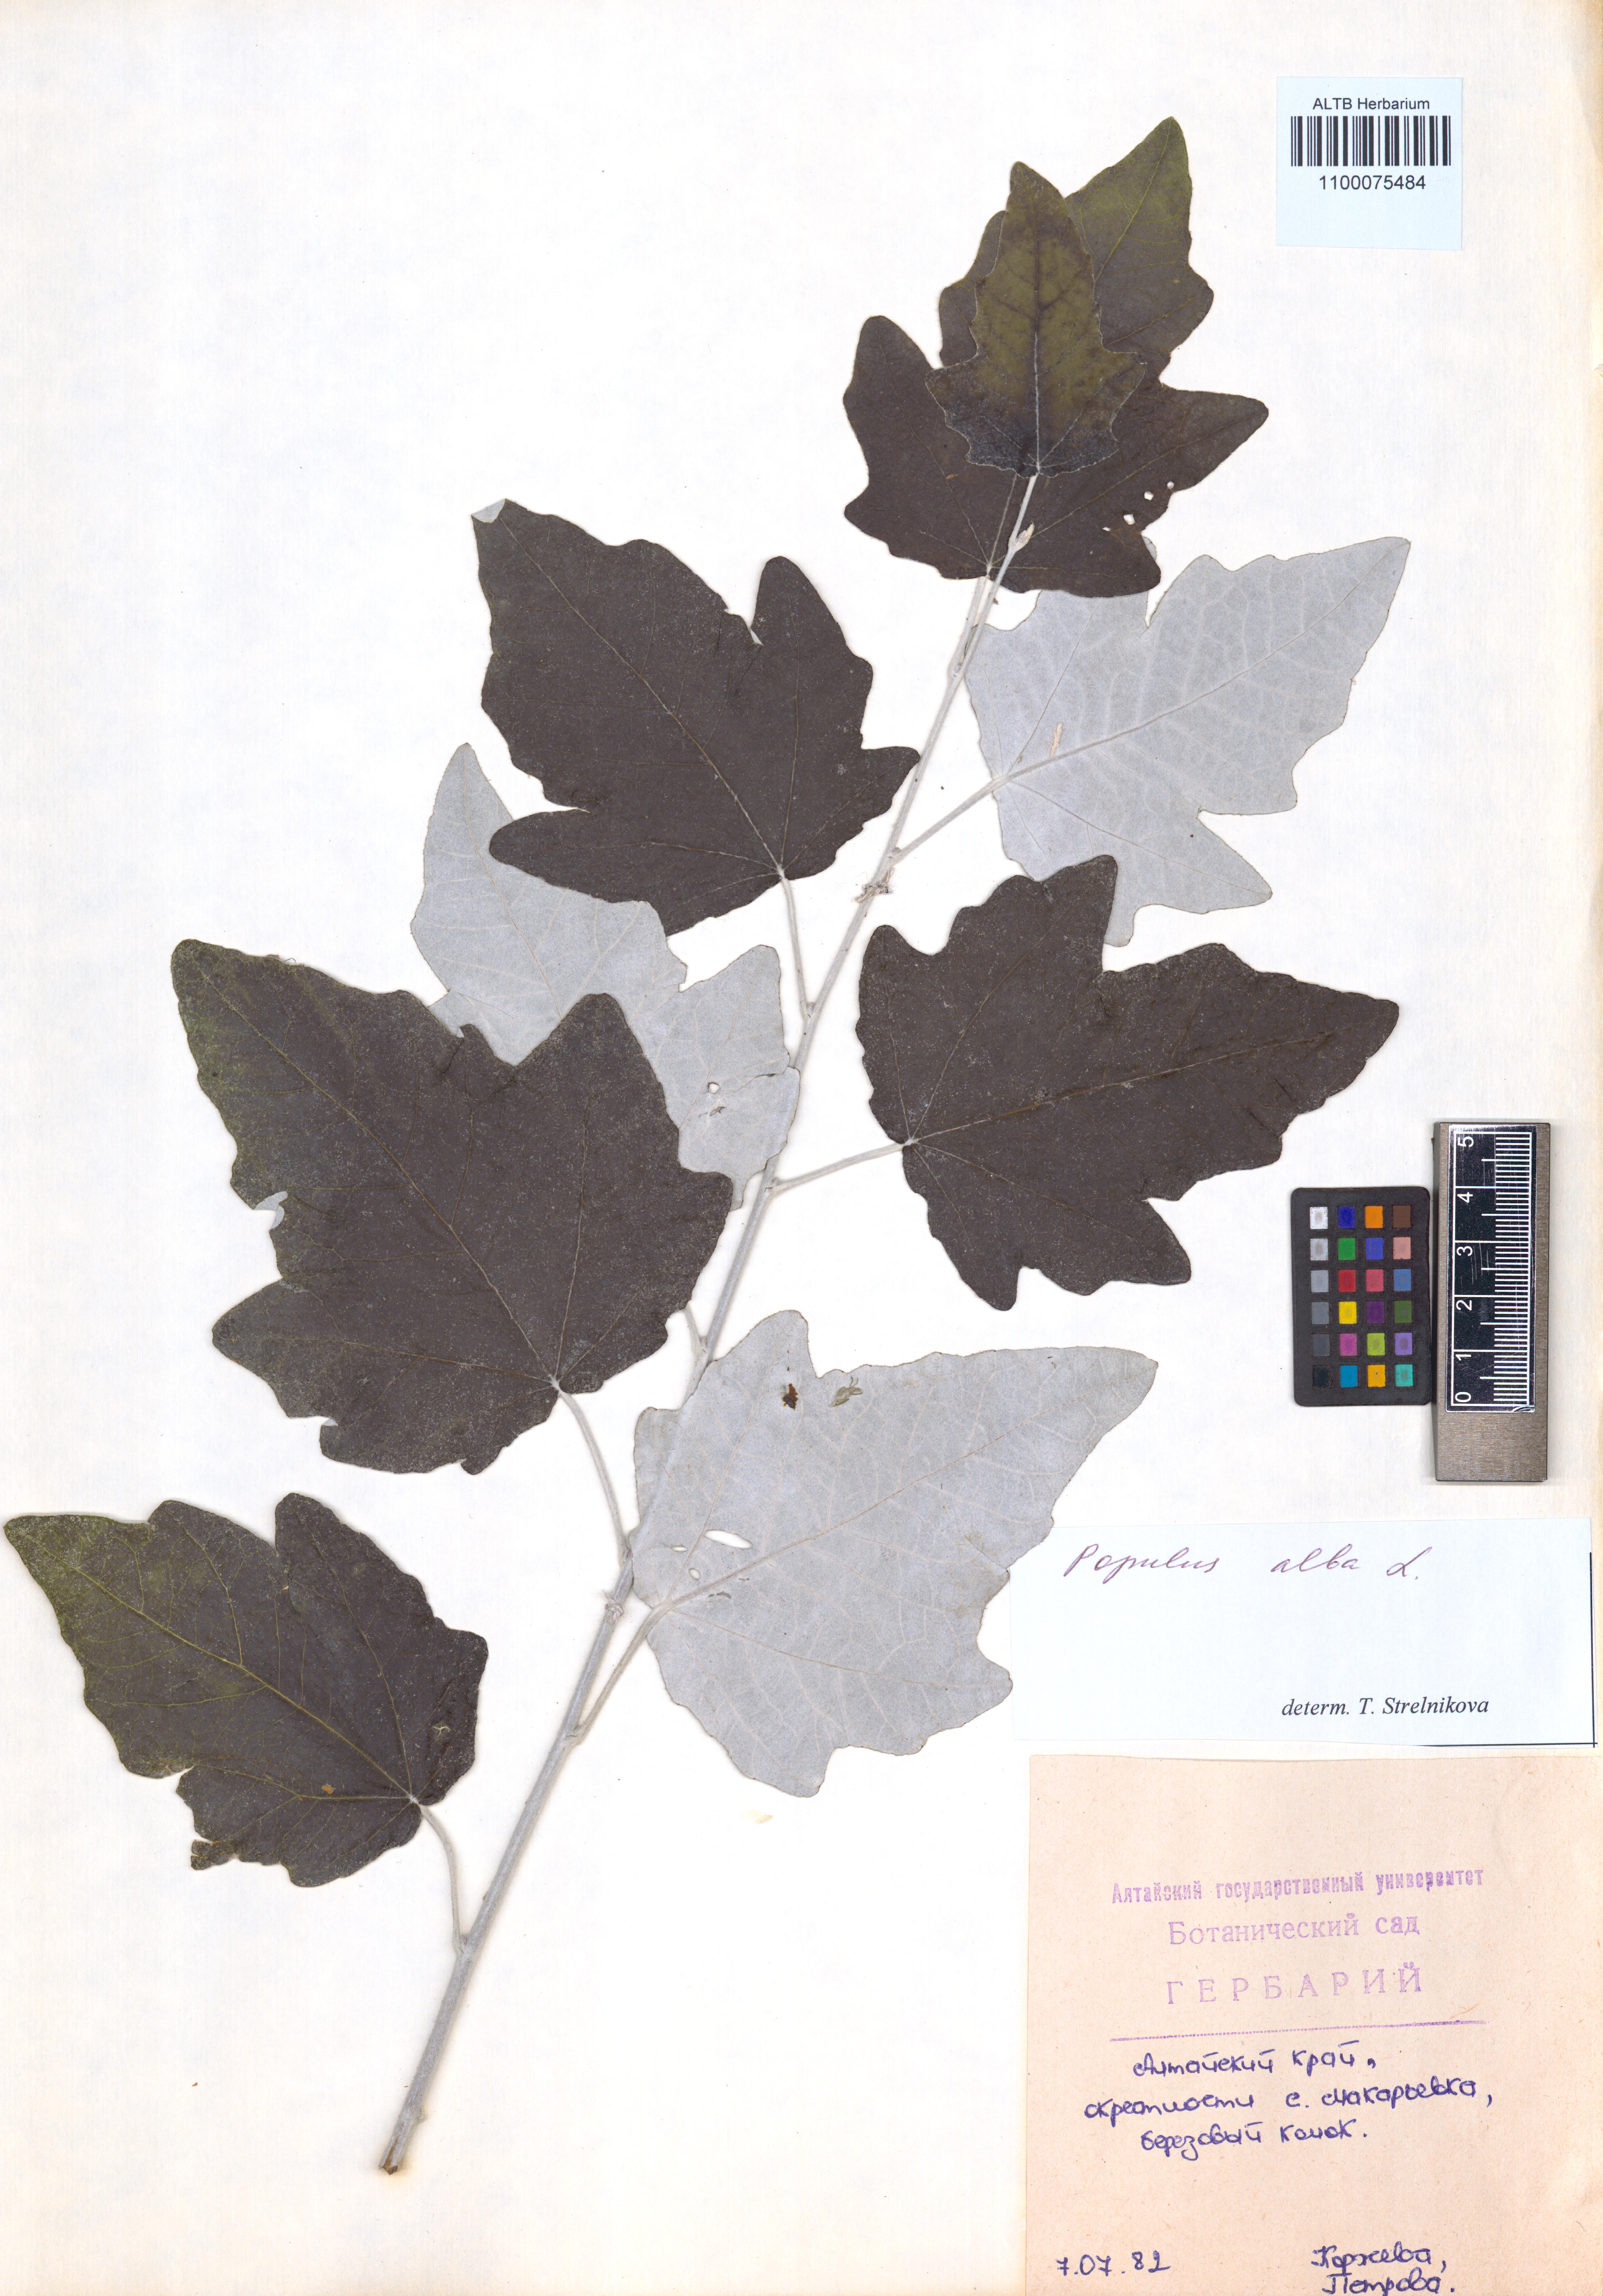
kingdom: Plantae
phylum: Tracheophyta
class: Magnoliopsida
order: Malpighiales
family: Salicaceae
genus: Populus
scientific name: Populus alba
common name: White poplar
